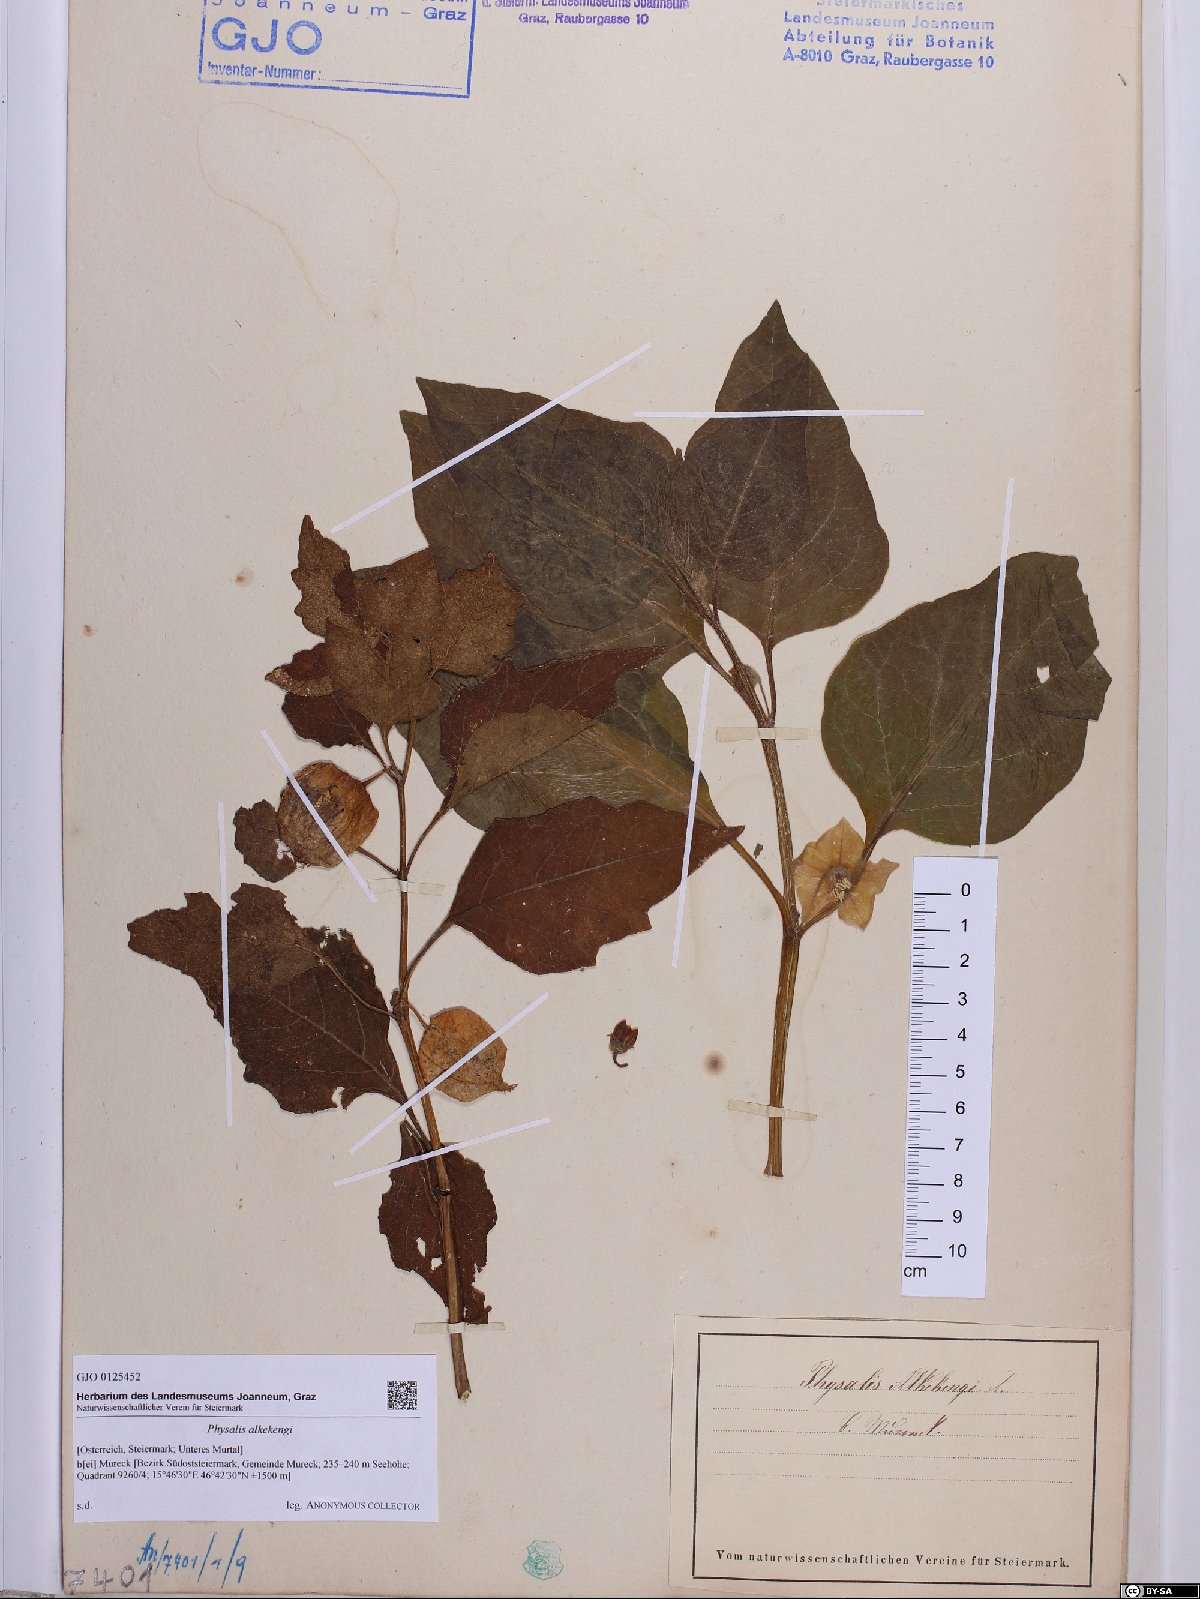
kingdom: Plantae
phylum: Tracheophyta
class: Magnoliopsida
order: Solanales
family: Solanaceae
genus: Alkekengi
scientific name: Alkekengi officinarum
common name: Japanese-lantern
